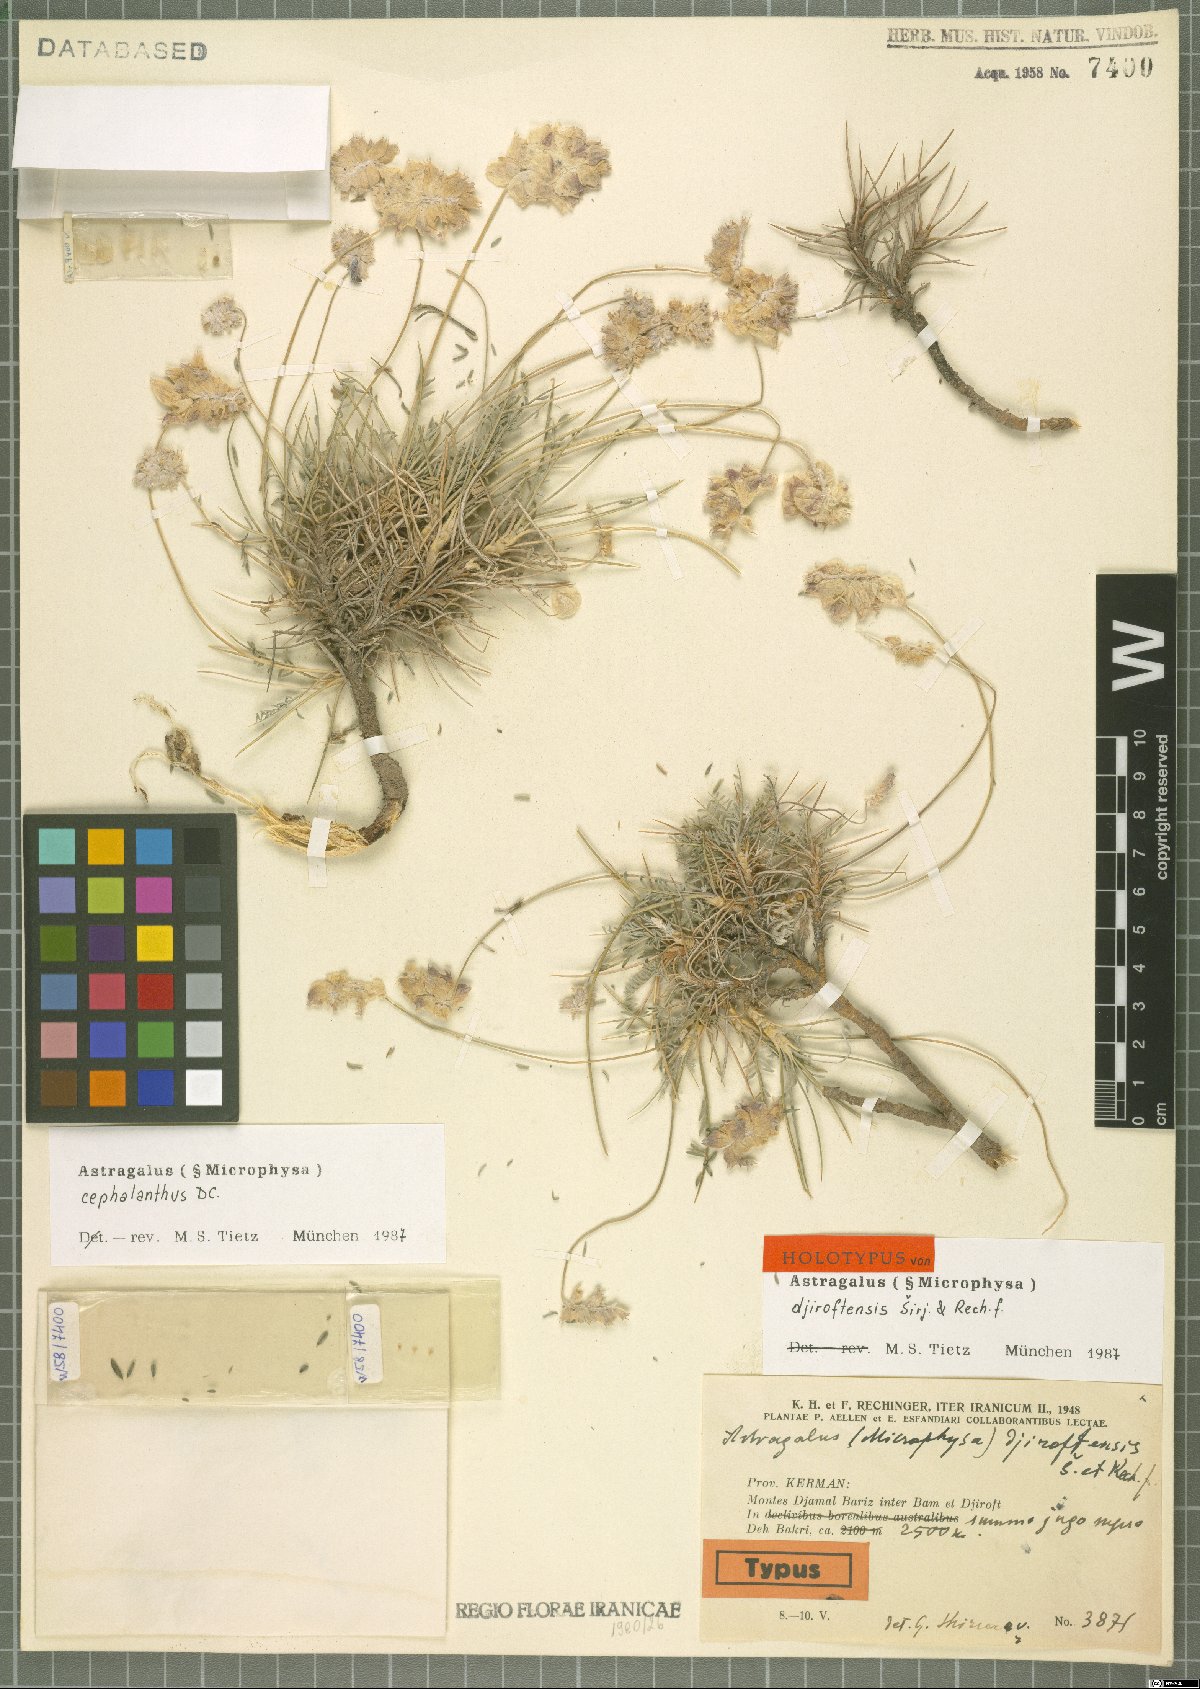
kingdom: Plantae
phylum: Tracheophyta
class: Magnoliopsida
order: Fabales
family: Fabaceae
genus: Astragalus
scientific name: Astragalus cephalanthus
